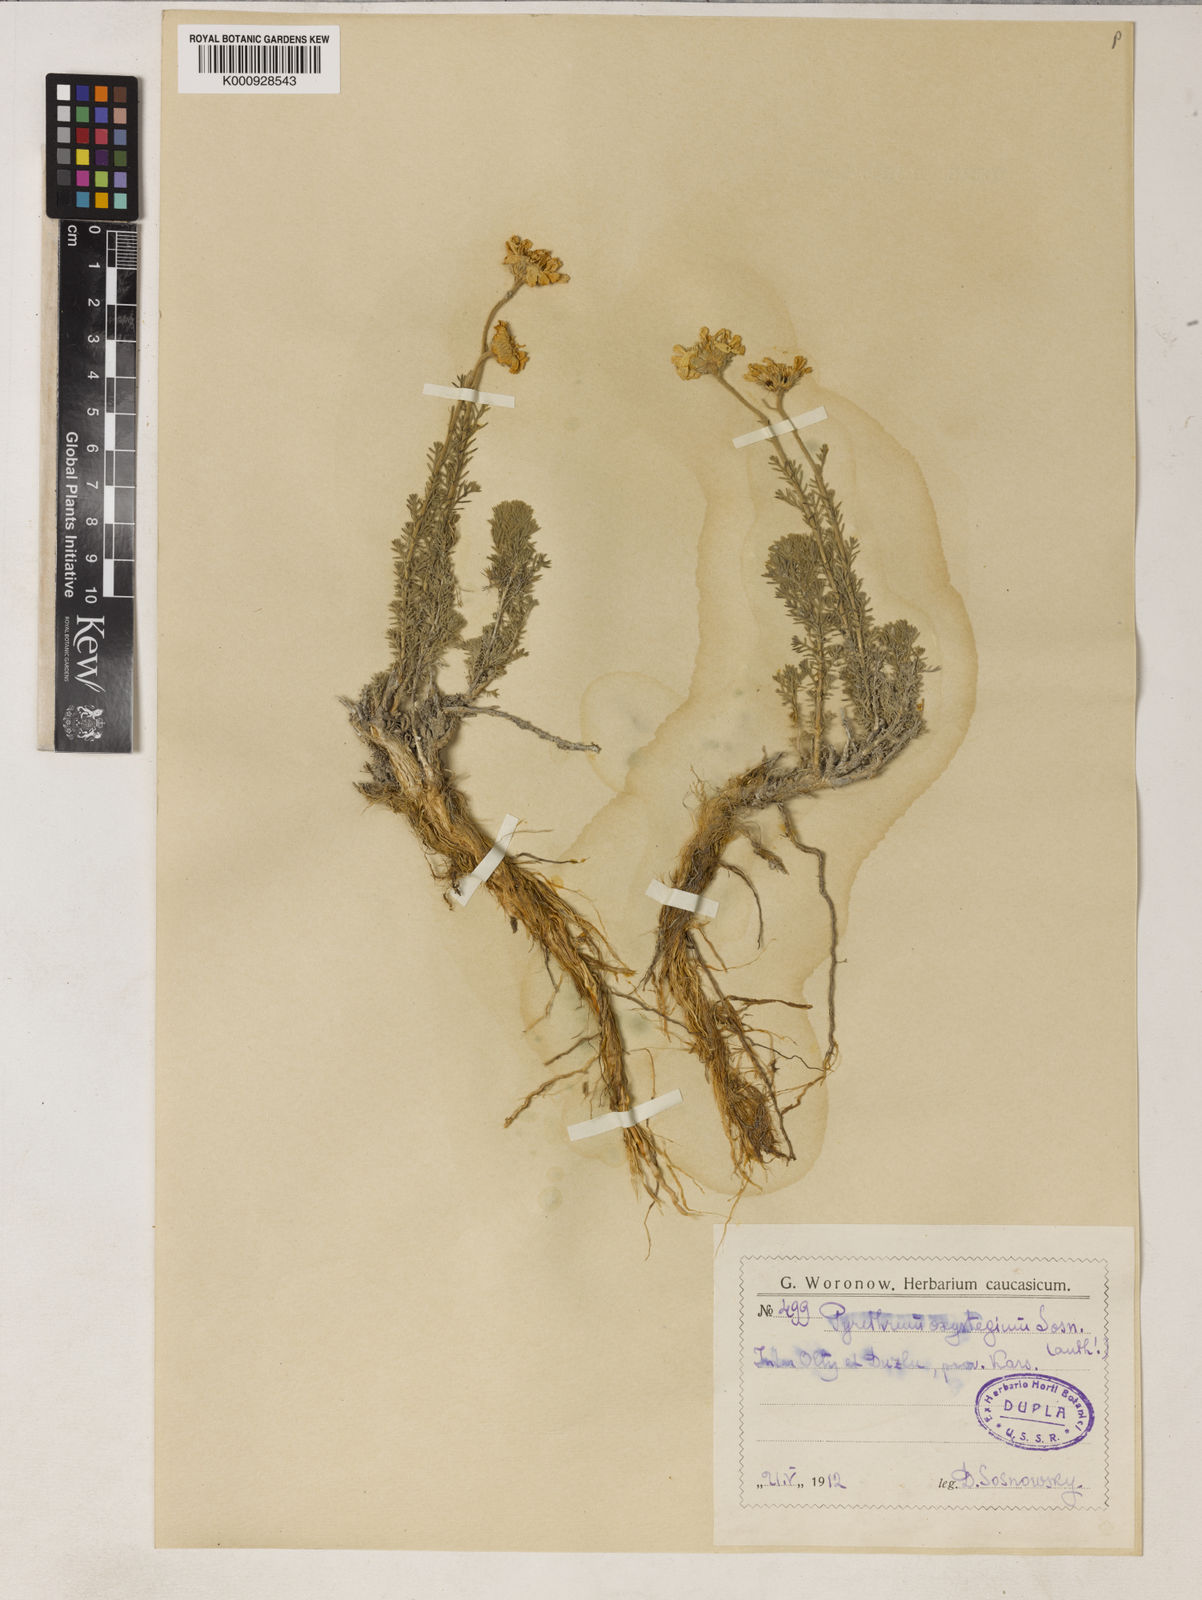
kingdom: Plantae
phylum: Tracheophyta
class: Magnoliopsida
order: Asterales
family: Asteraceae
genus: Tanacetum
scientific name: Tanacetum oxystegium
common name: Sharp-stegium tansy
